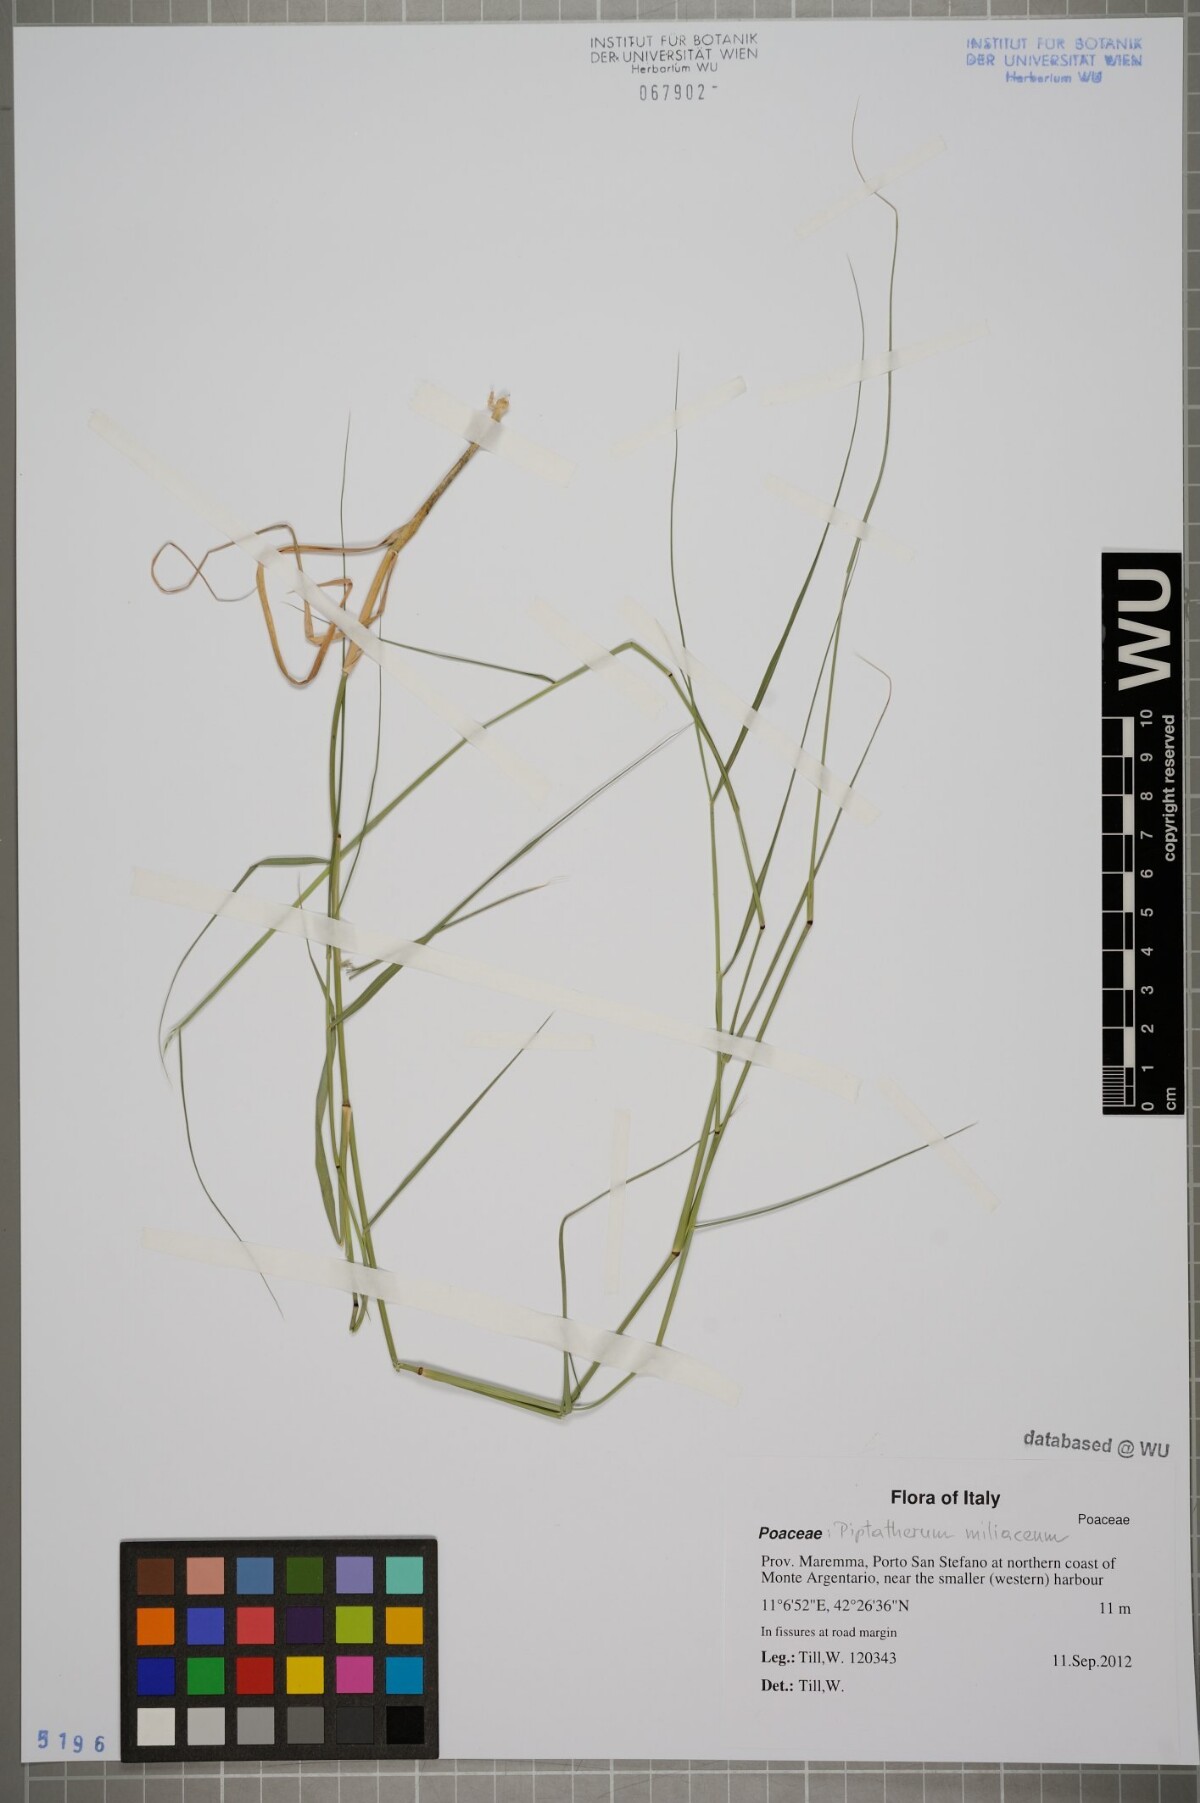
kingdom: Plantae
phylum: Tracheophyta
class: Liliopsida
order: Poales
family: Poaceae
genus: Oloptum
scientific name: Oloptum miliaceum
